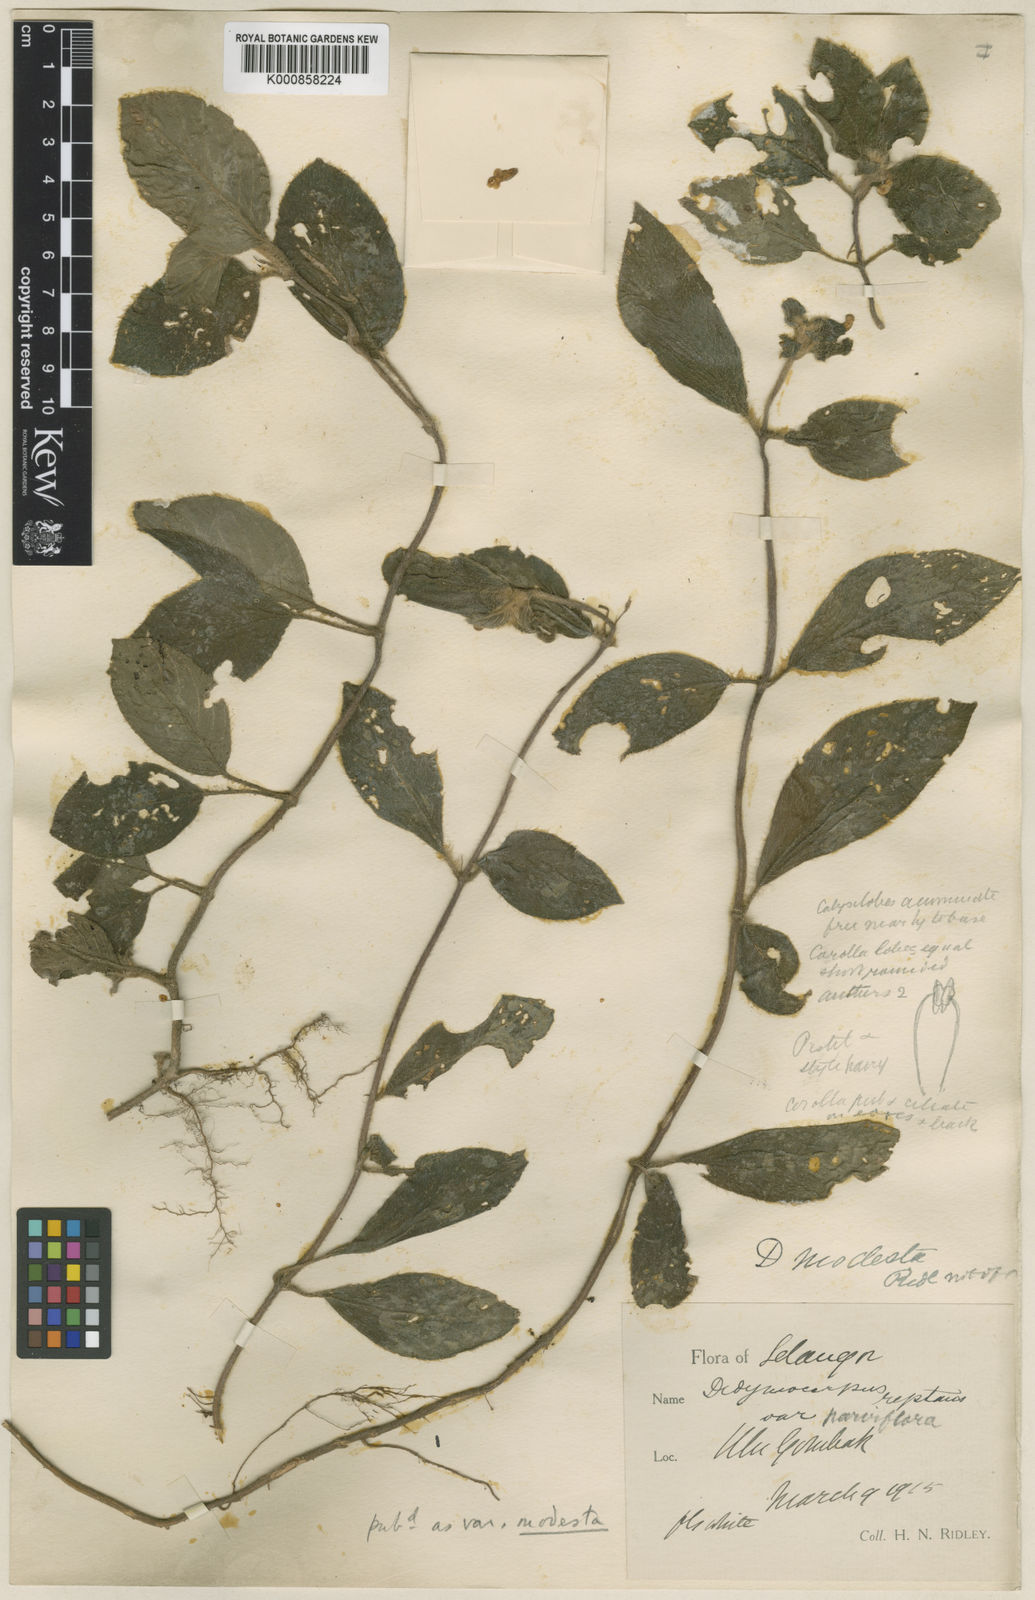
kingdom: Plantae
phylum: Tracheophyta
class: Magnoliopsida
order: Lamiales
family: Gesneriaceae
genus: Codonoboea
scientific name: Codonoboea reptans
